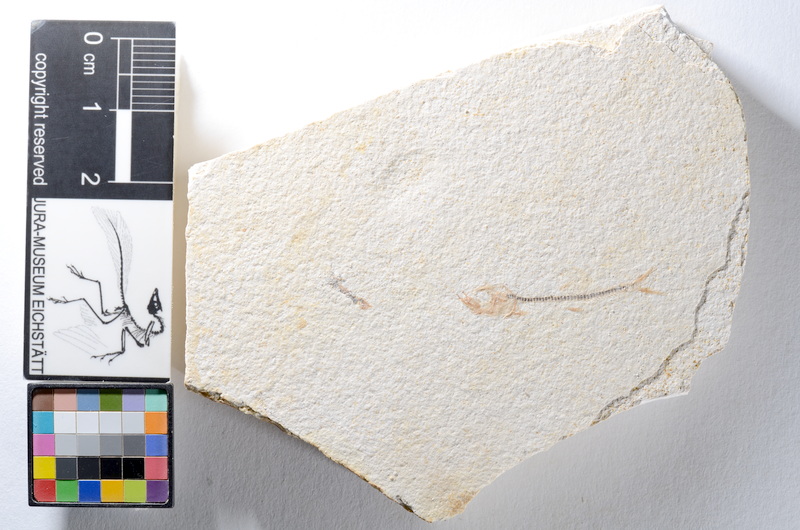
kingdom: Animalia
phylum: Chordata
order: Salmoniformes
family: Orthogonikleithridae
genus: Orthogonikleithrus
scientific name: Orthogonikleithrus hoelli
